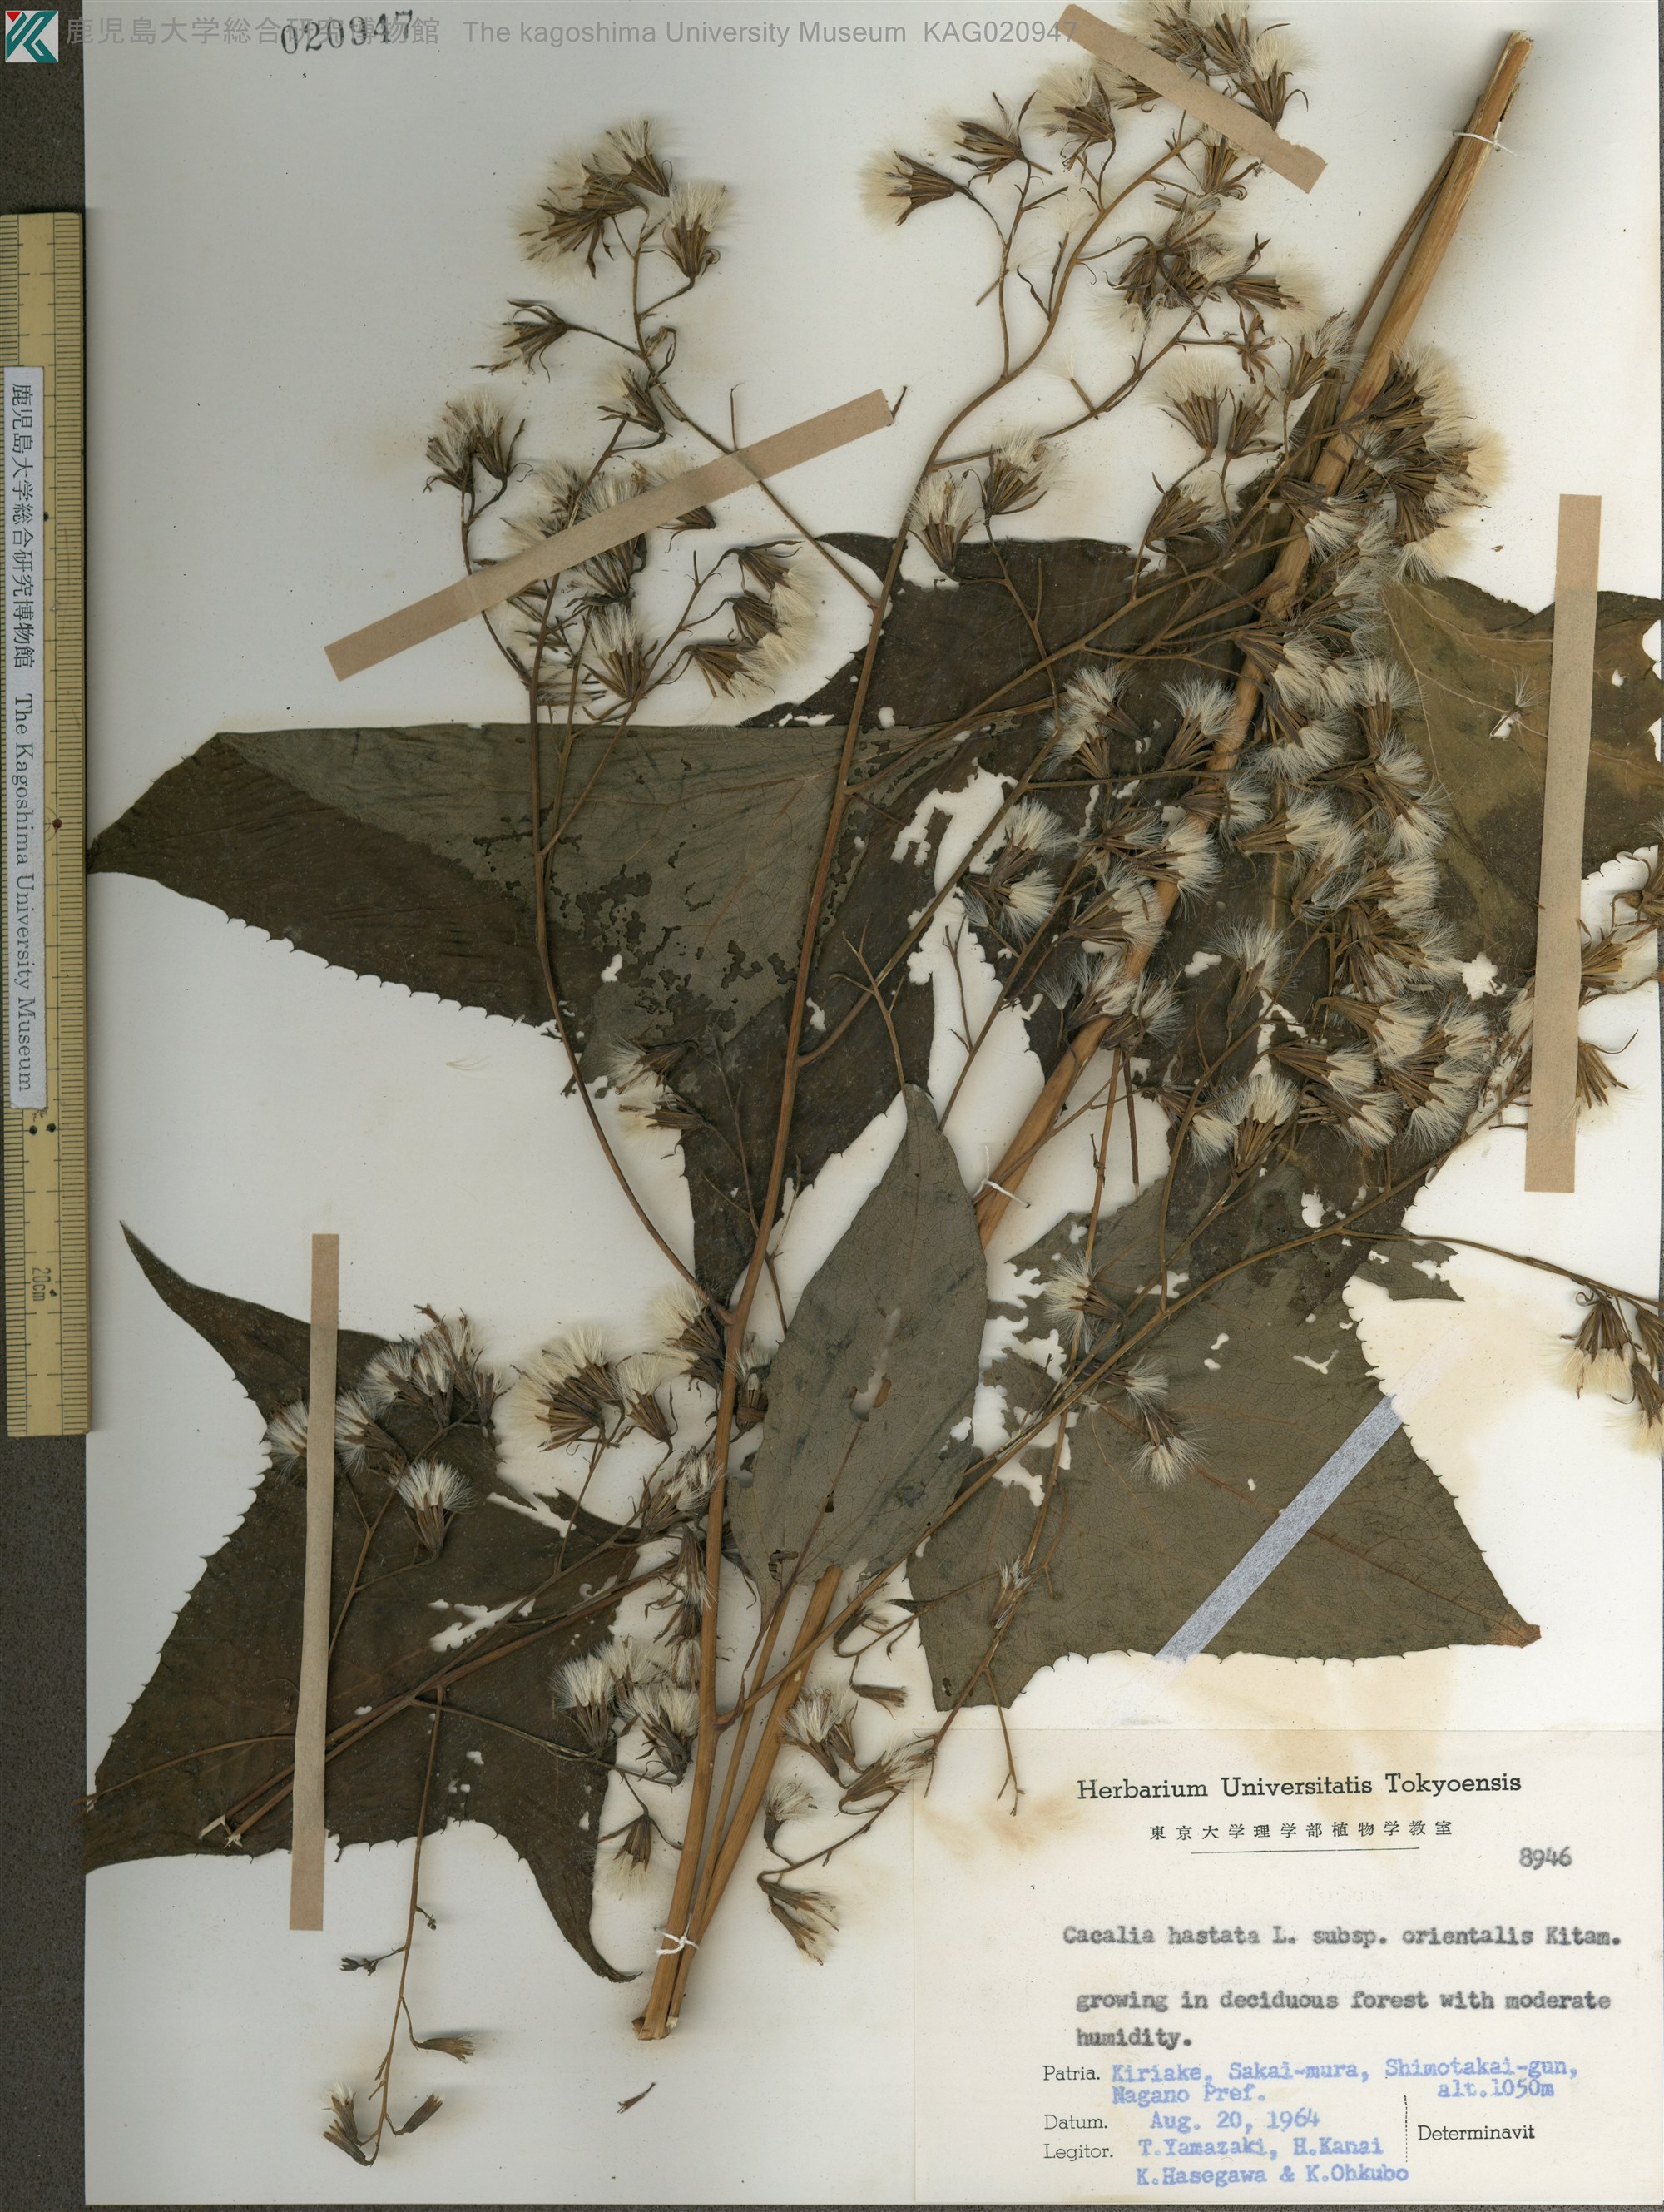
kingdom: Plantae
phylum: Tracheophyta
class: Magnoliopsida
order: Asterales
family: Asteraceae
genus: Parasenecio
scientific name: Parasenecio
